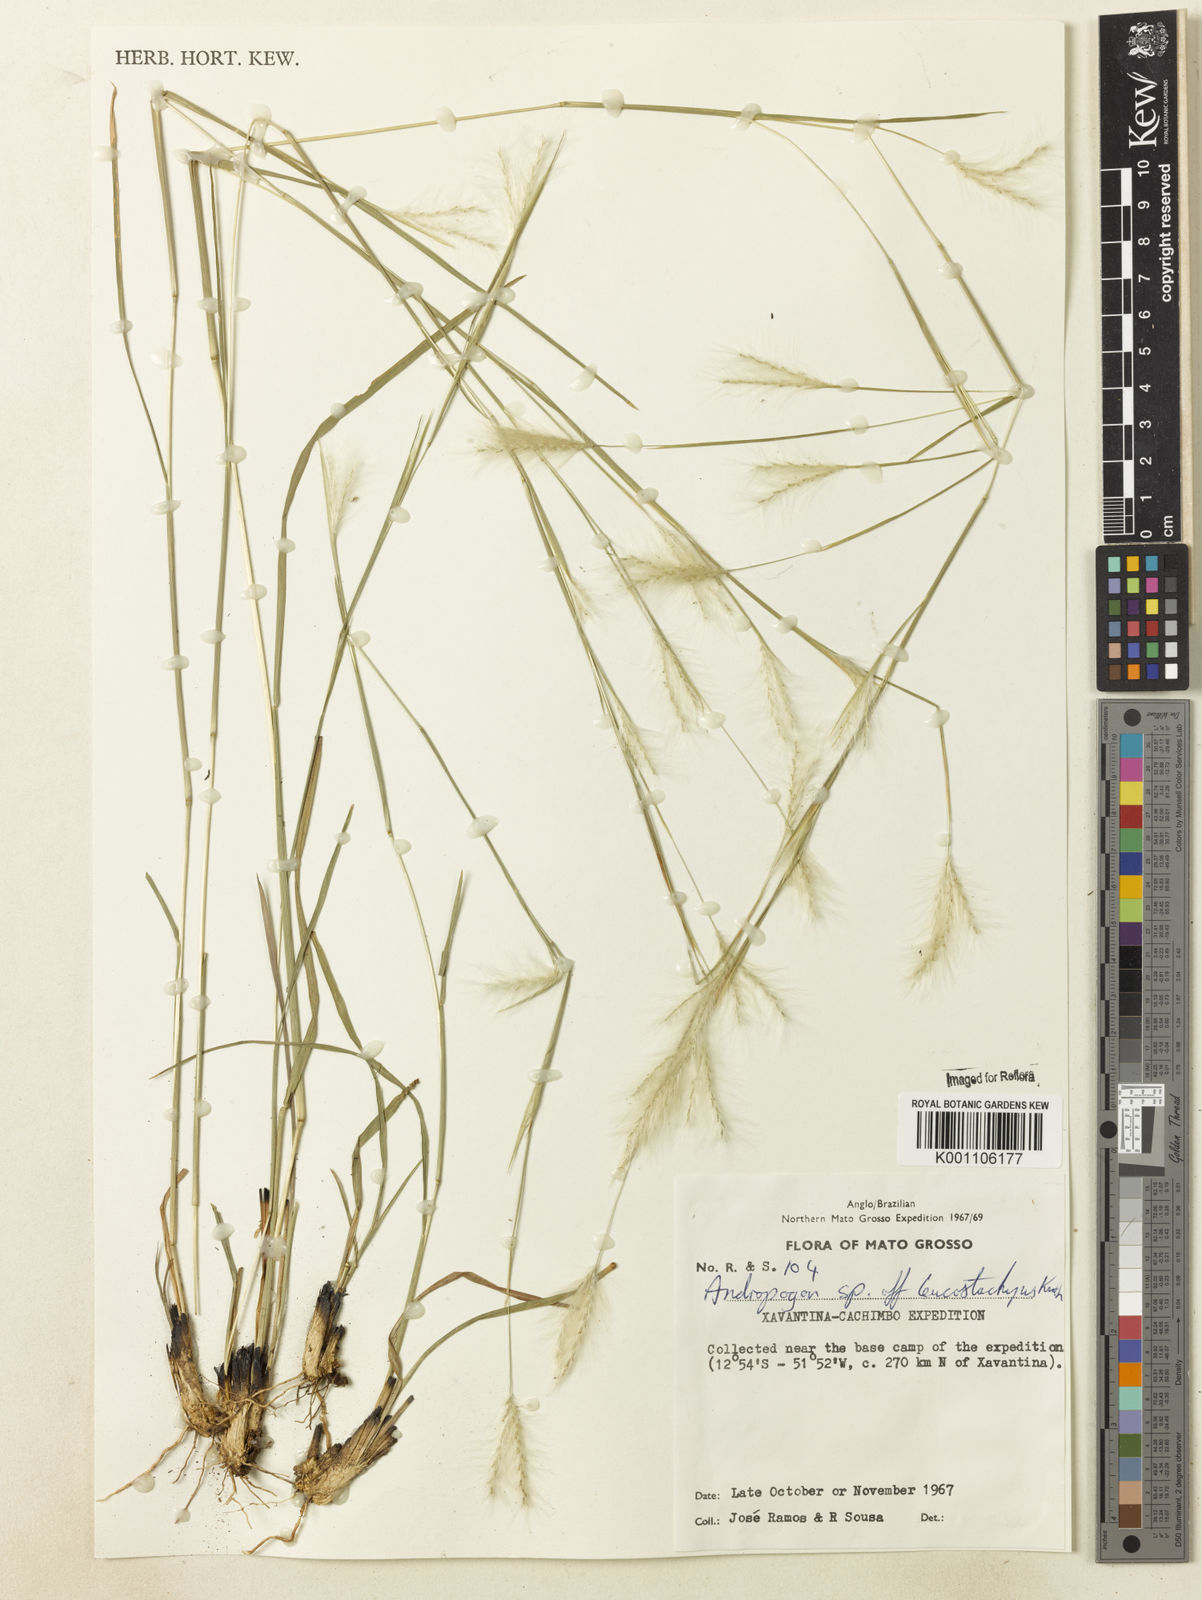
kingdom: Plantae
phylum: Tracheophyta
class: Liliopsida
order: Poales
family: Poaceae
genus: Andropogon
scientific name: Andropogon leucostachyus
